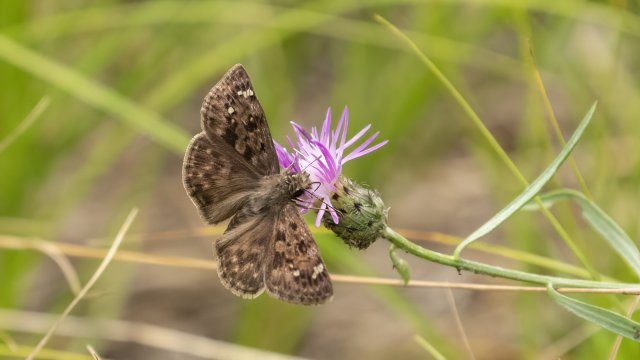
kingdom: Animalia
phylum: Arthropoda
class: Insecta
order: Lepidoptera
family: Hesperiidae
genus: Erynnis
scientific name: Erynnis martialis
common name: Mottled Duskywing
